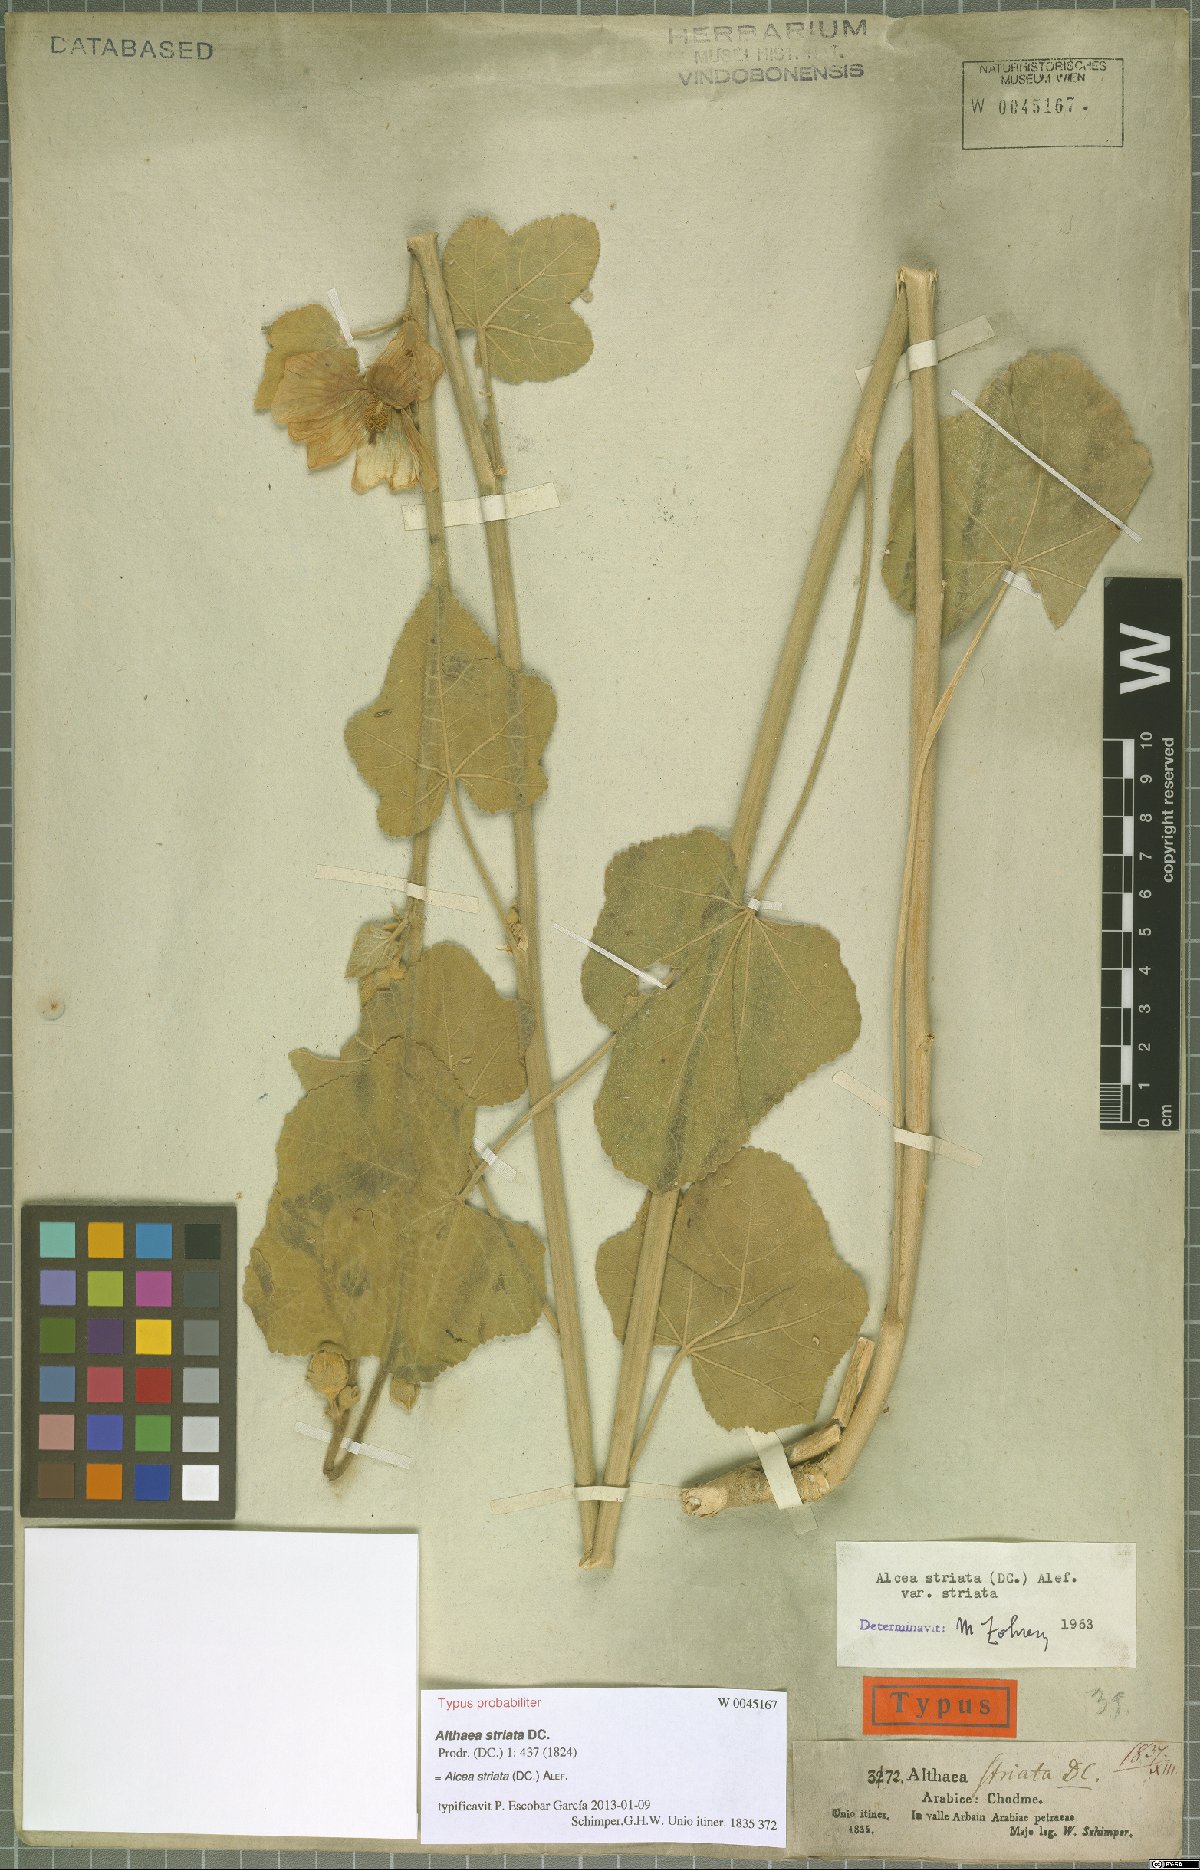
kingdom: Plantae
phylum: Tracheophyta
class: Magnoliopsida
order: Malvales
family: Malvaceae
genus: Alcea
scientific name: Alcea striata
